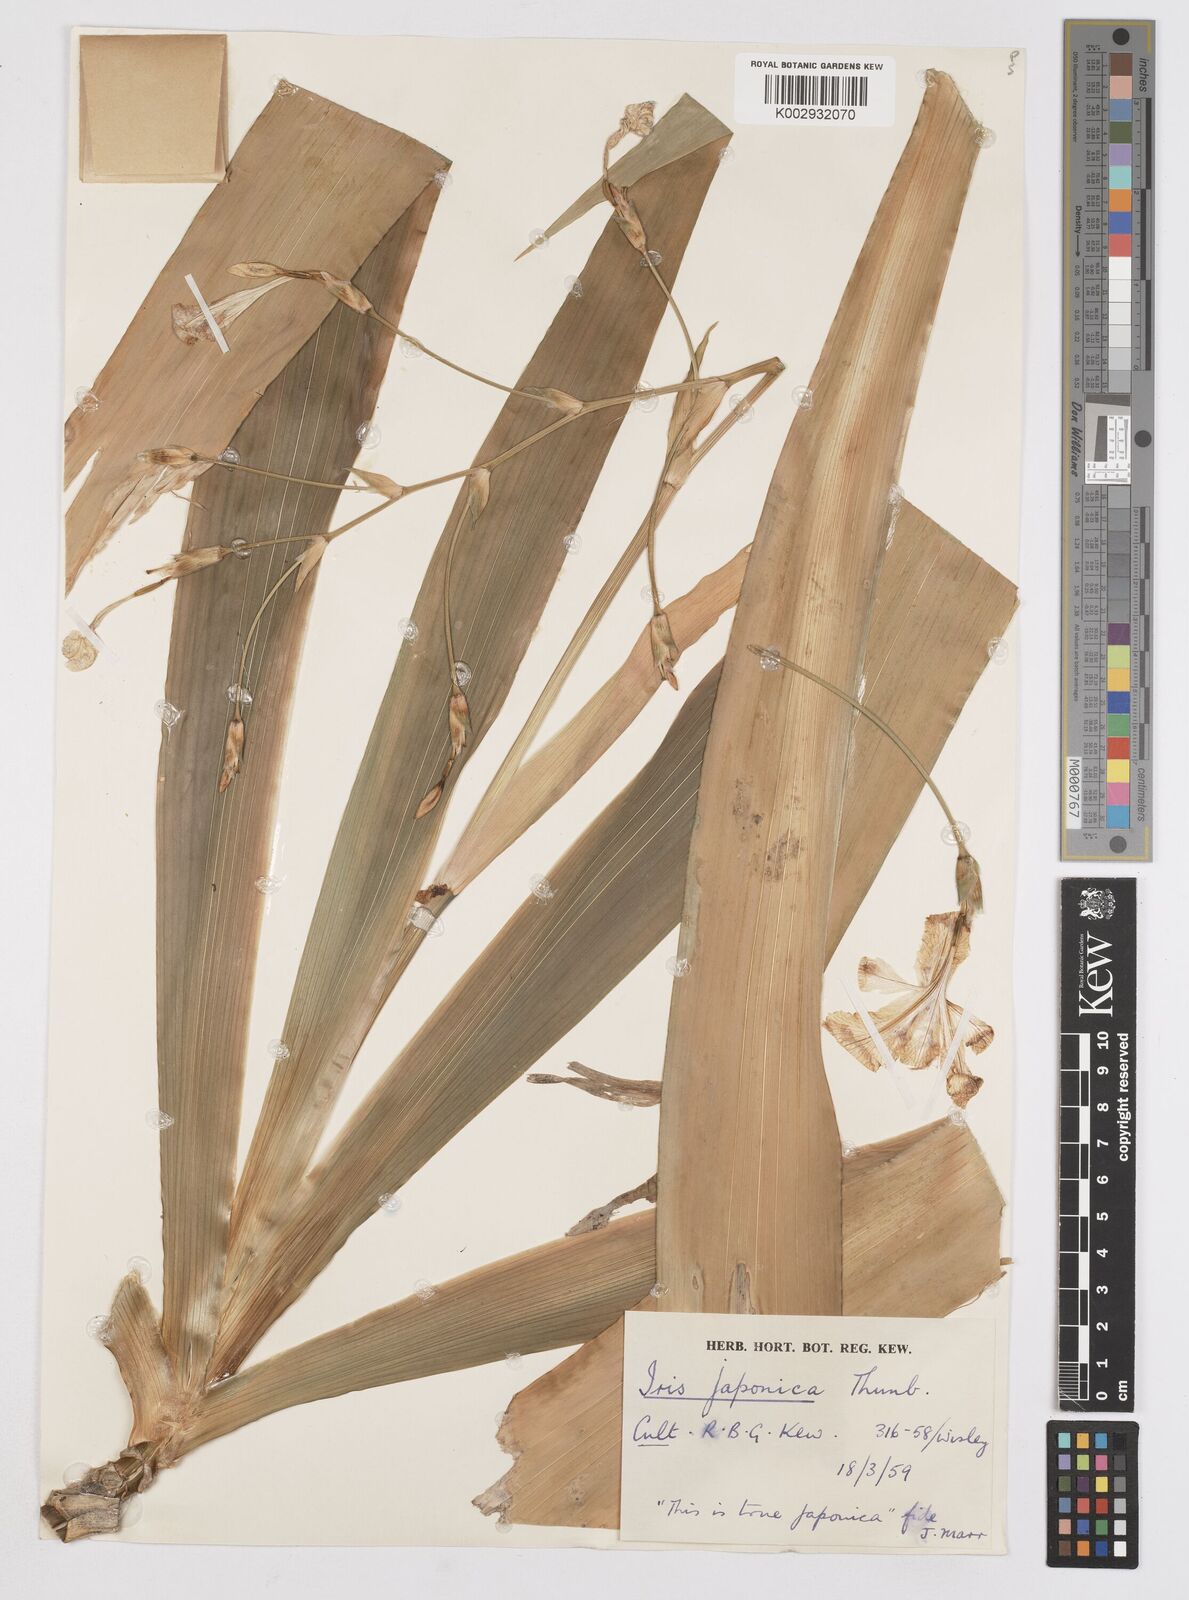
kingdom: Plantae
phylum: Tracheophyta
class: Liliopsida
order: Asparagales
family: Iridaceae
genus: Iris
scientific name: Iris japonica
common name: Butterfly-flower
